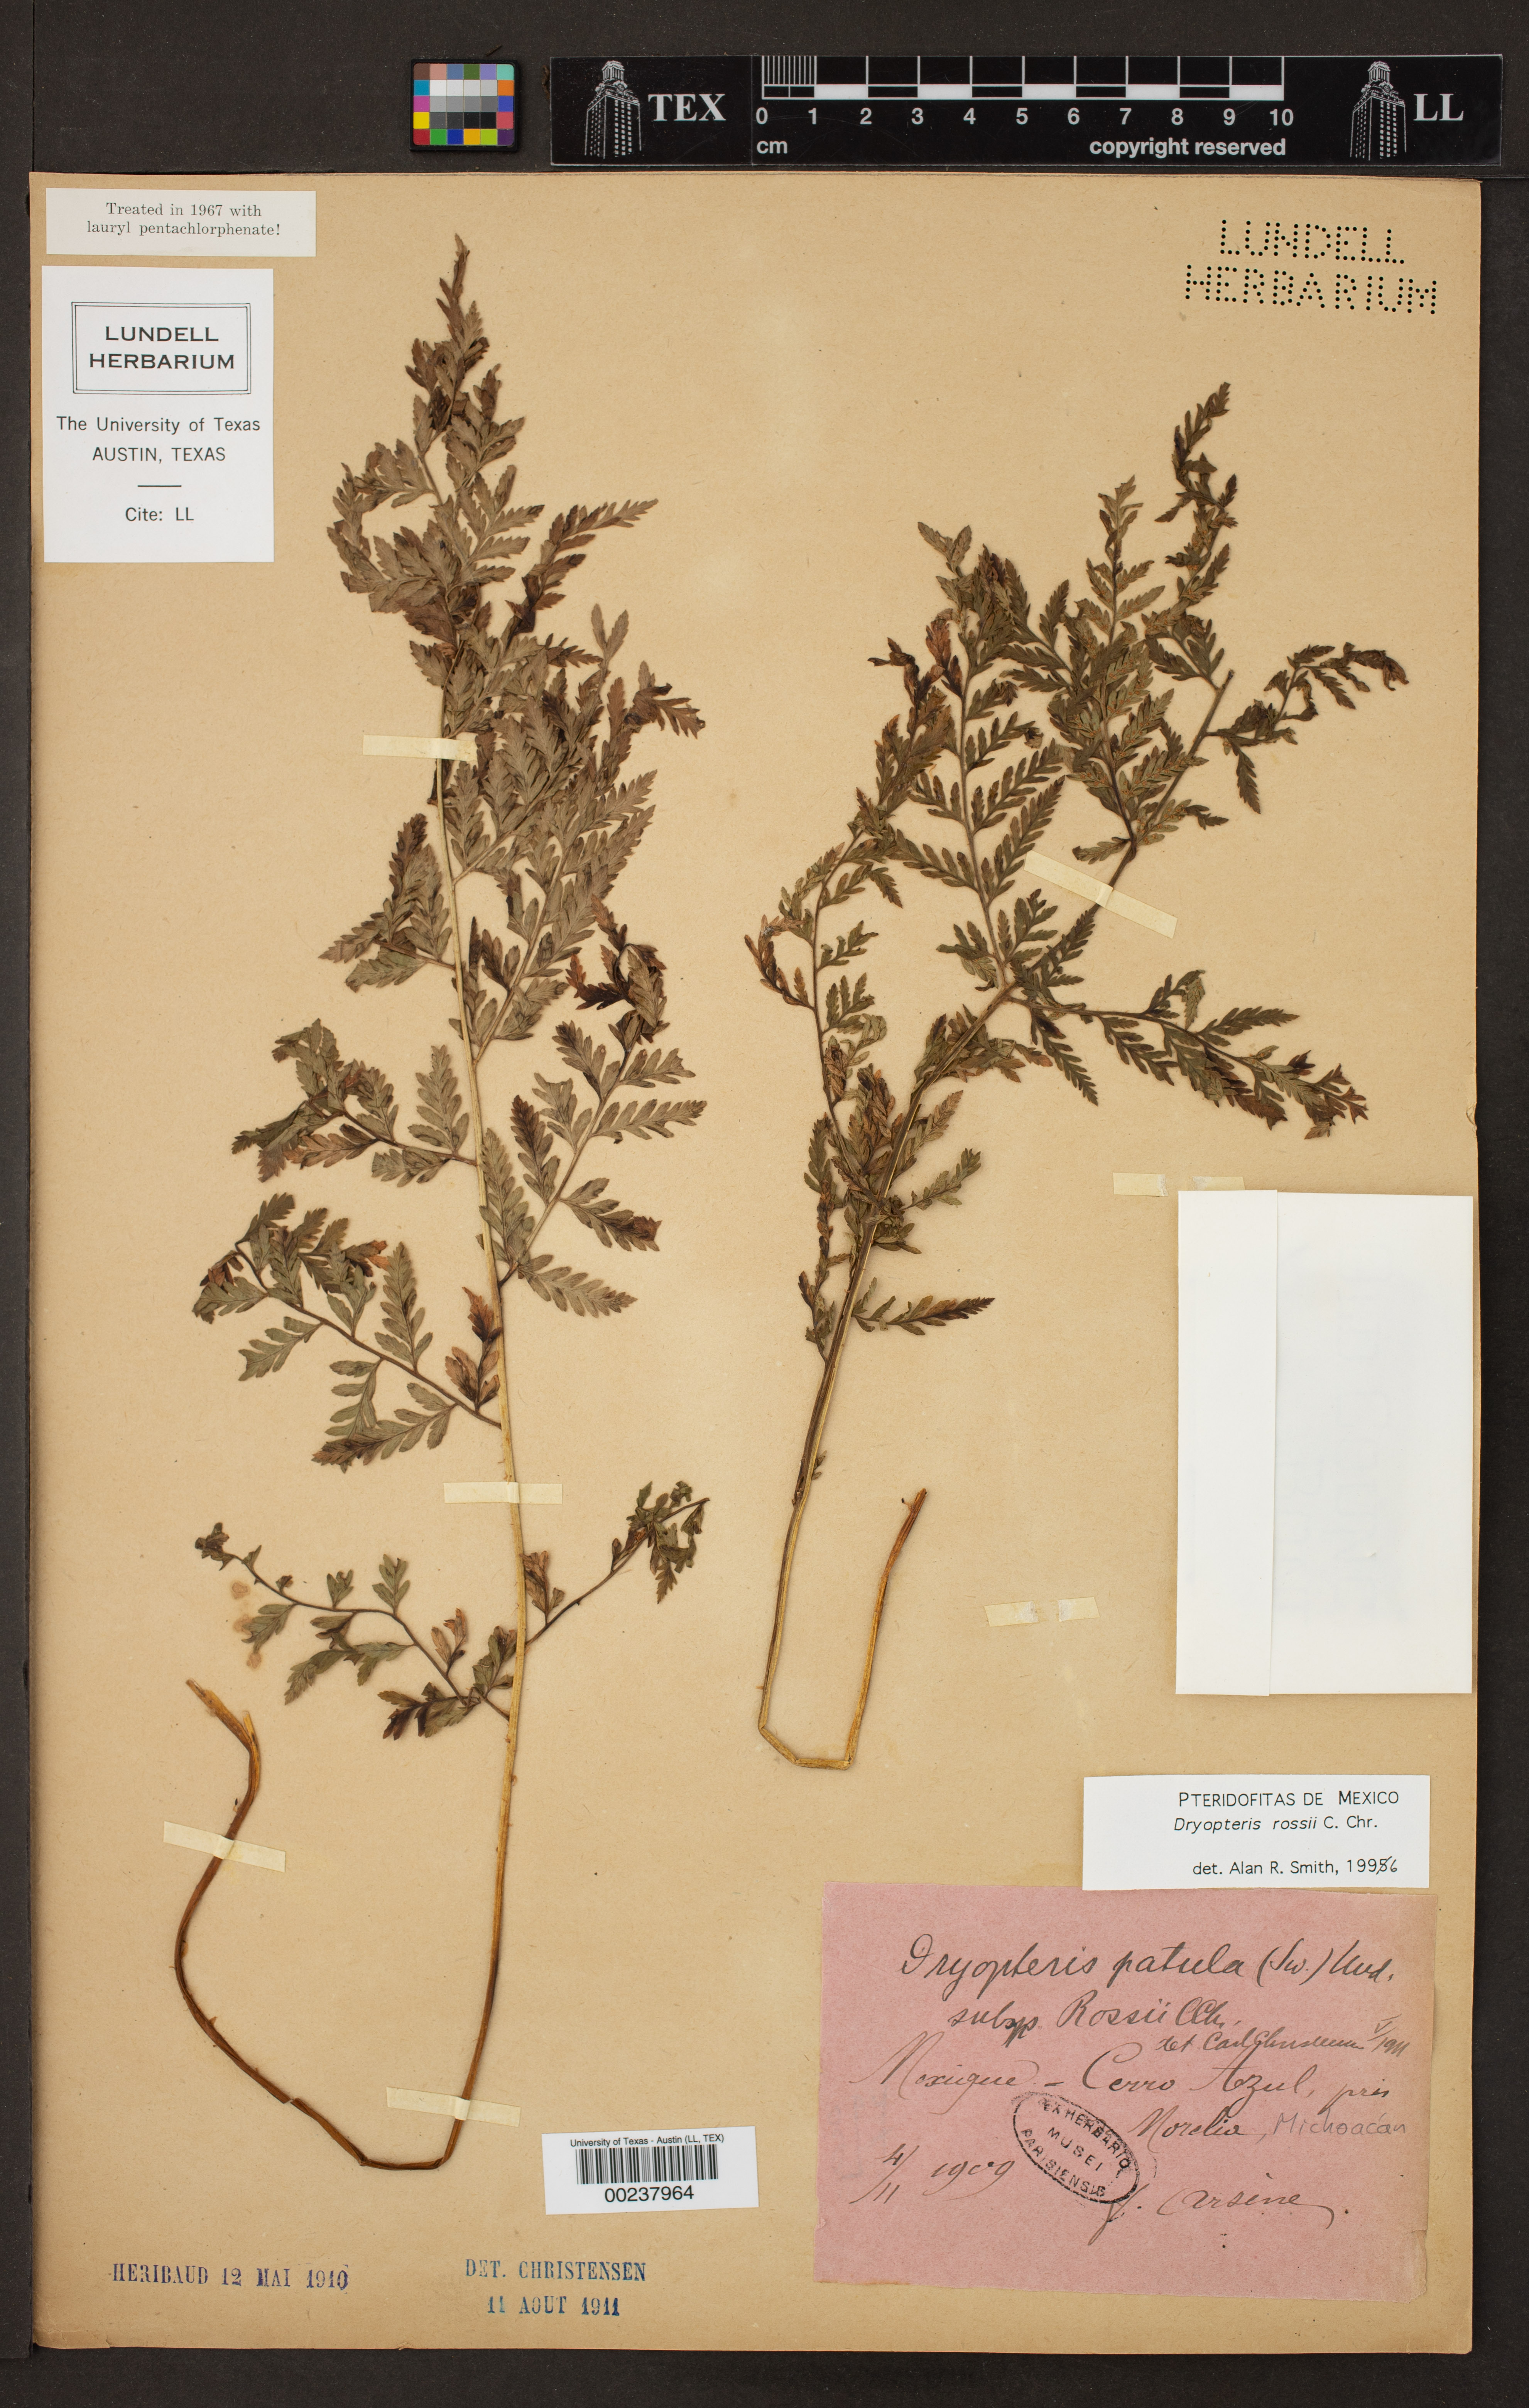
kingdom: Plantae
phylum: Tracheophyta
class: Polypodiopsida
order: Polypodiales
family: Dryopteridaceae
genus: Dryopteris
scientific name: Dryopteris rossii
